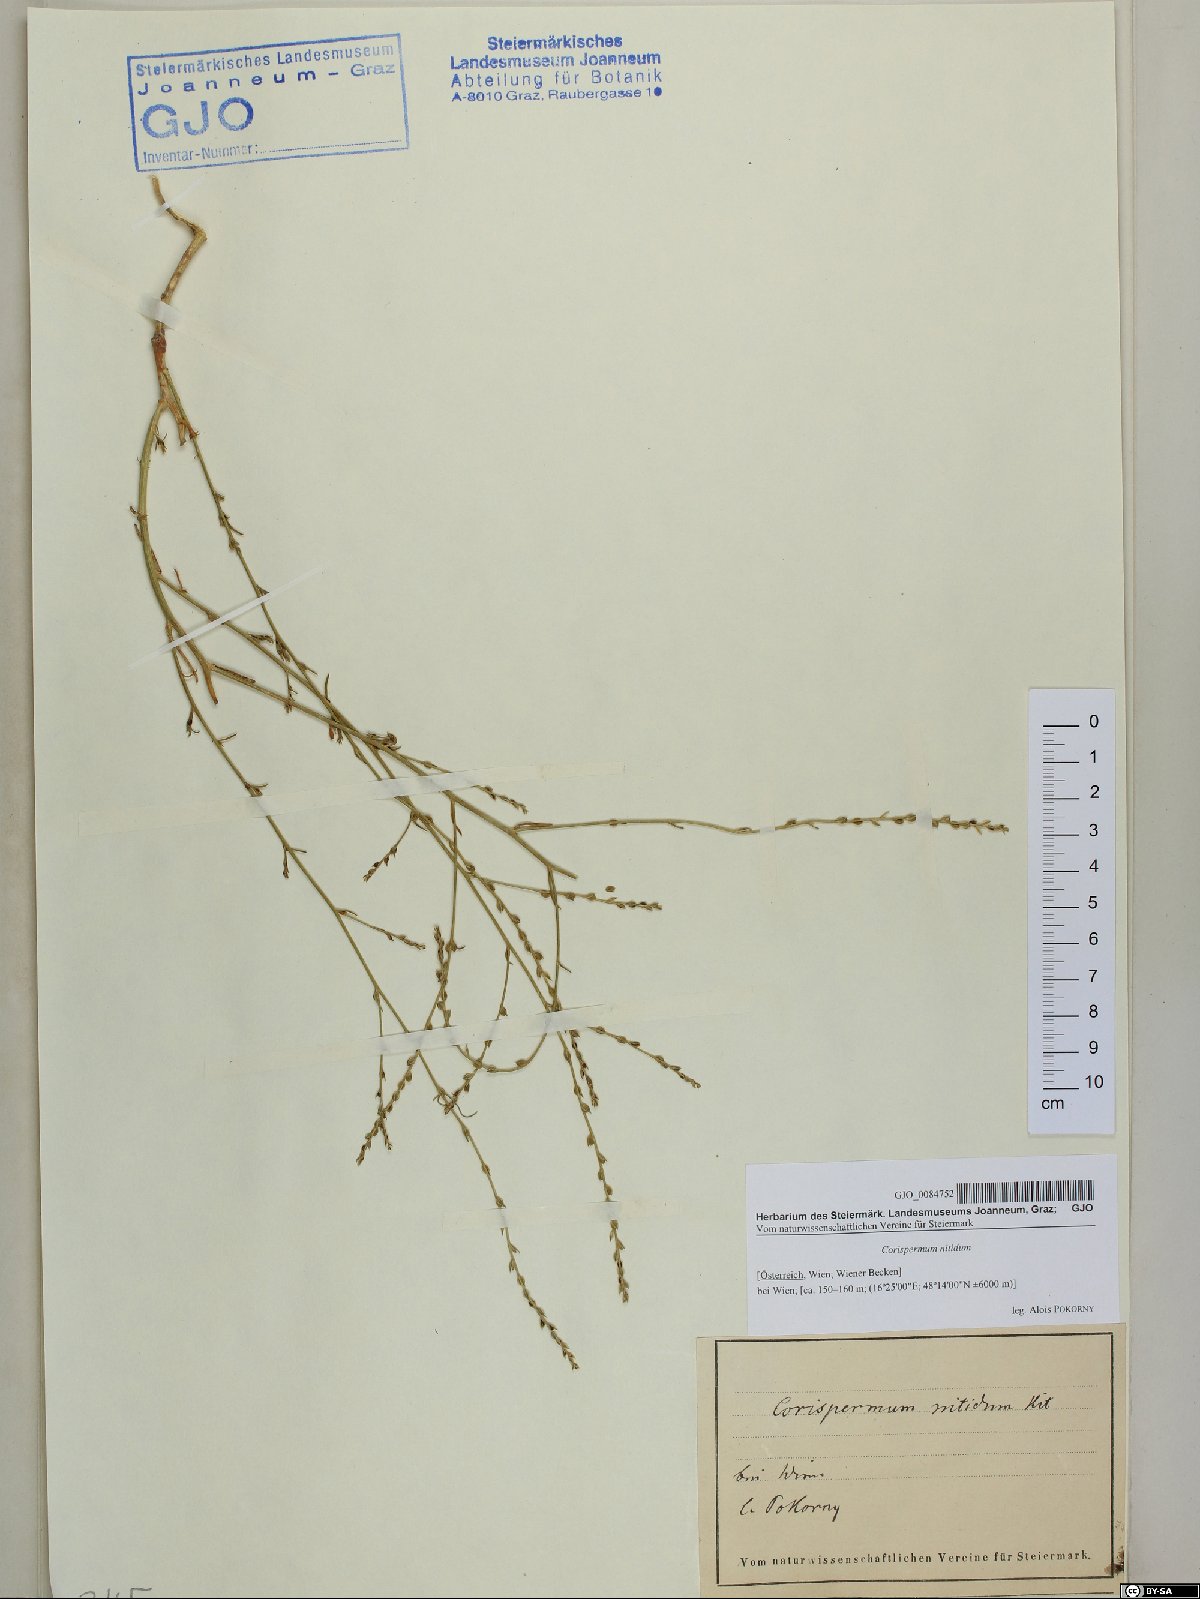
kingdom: Plantae
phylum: Tracheophyta
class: Magnoliopsida
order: Caryophyllales
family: Amaranthaceae
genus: Corispermum
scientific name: Corispermum nitidum
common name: Bugseed
